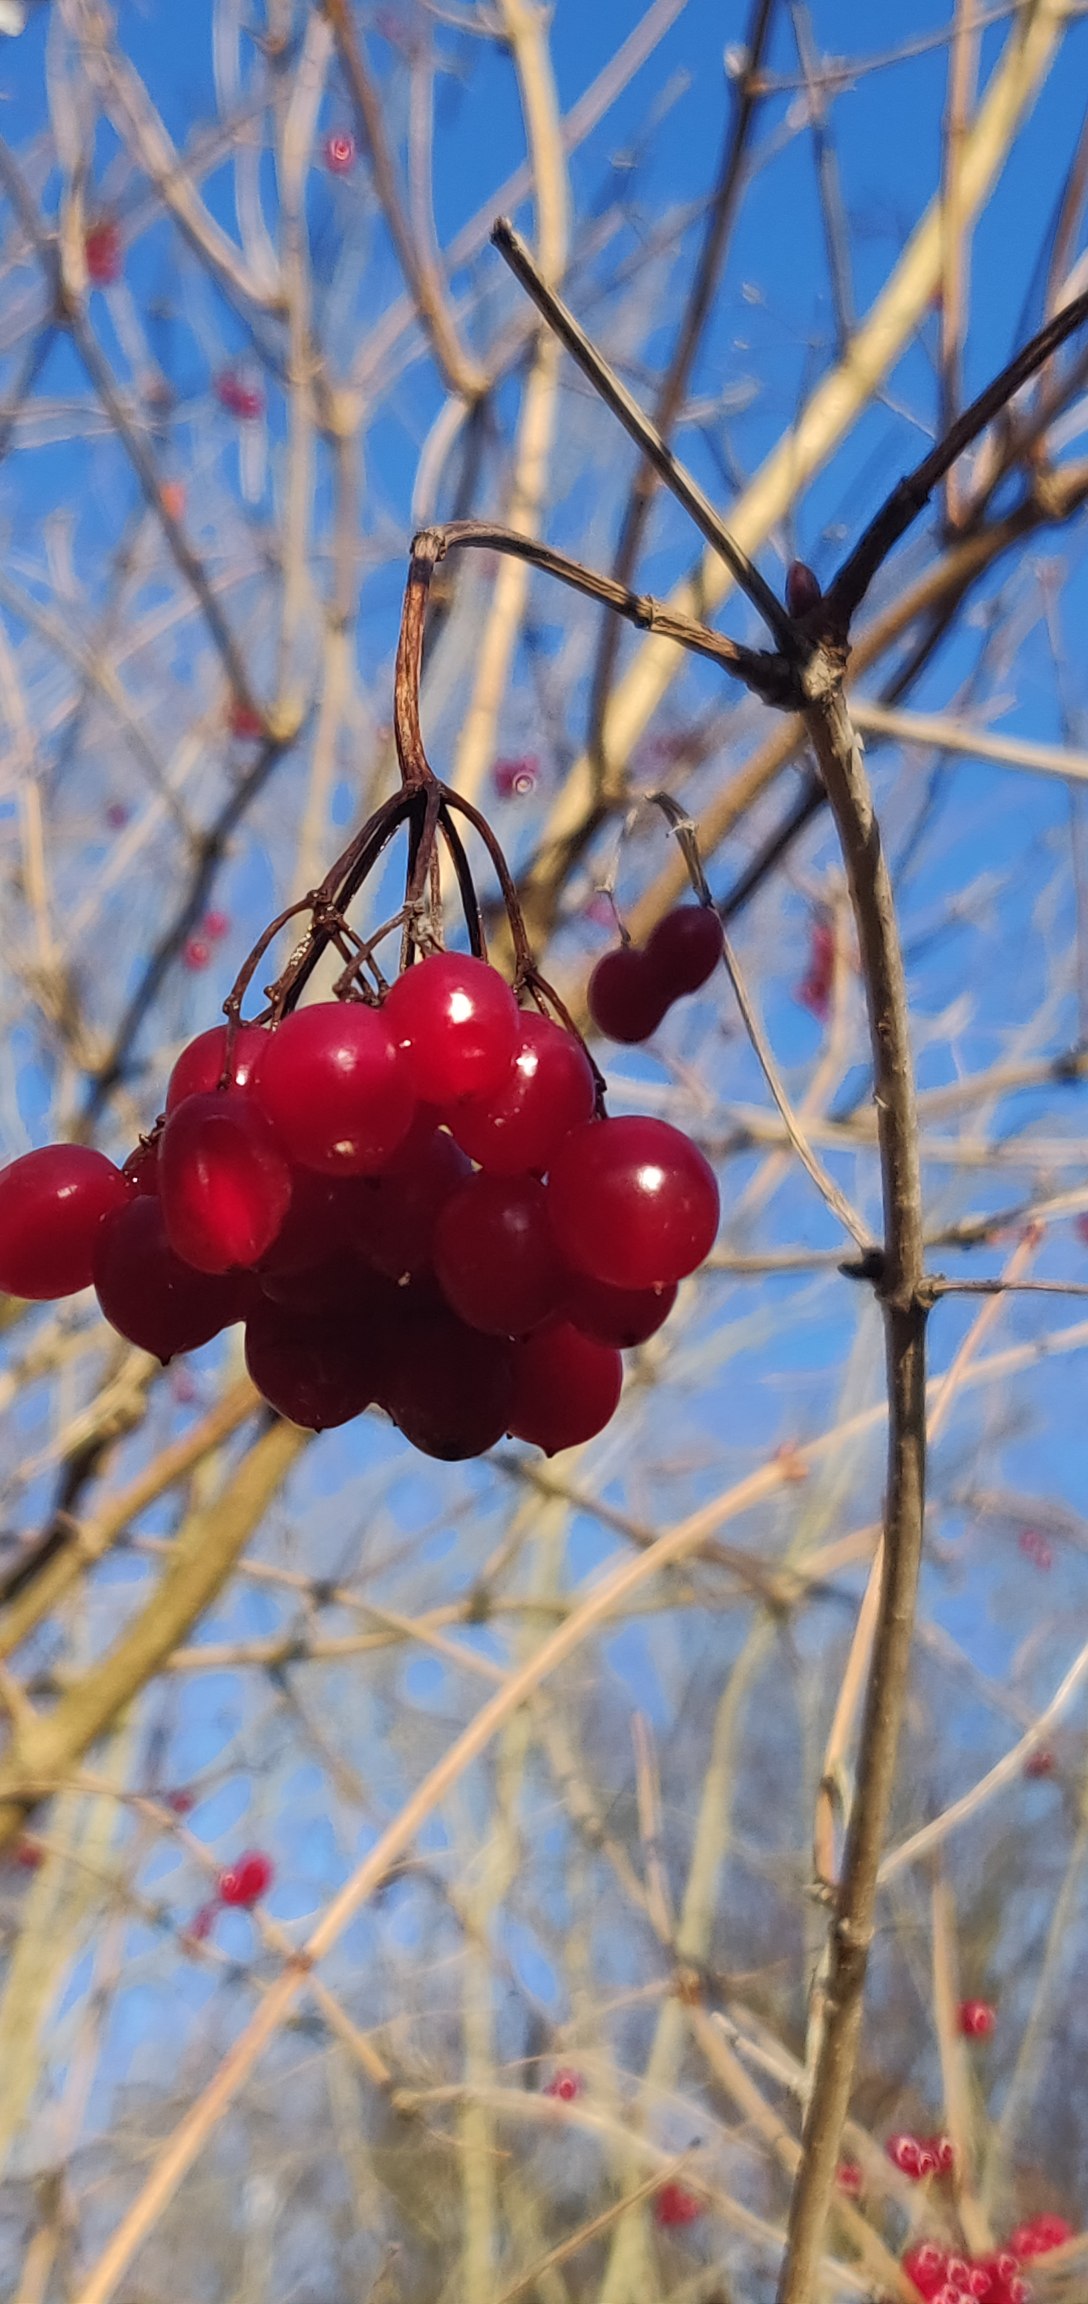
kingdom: Plantae
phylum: Tracheophyta
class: Magnoliopsida
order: Dipsacales
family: Viburnaceae
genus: Viburnum
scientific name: Viburnum opulus
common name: Kvalkved
